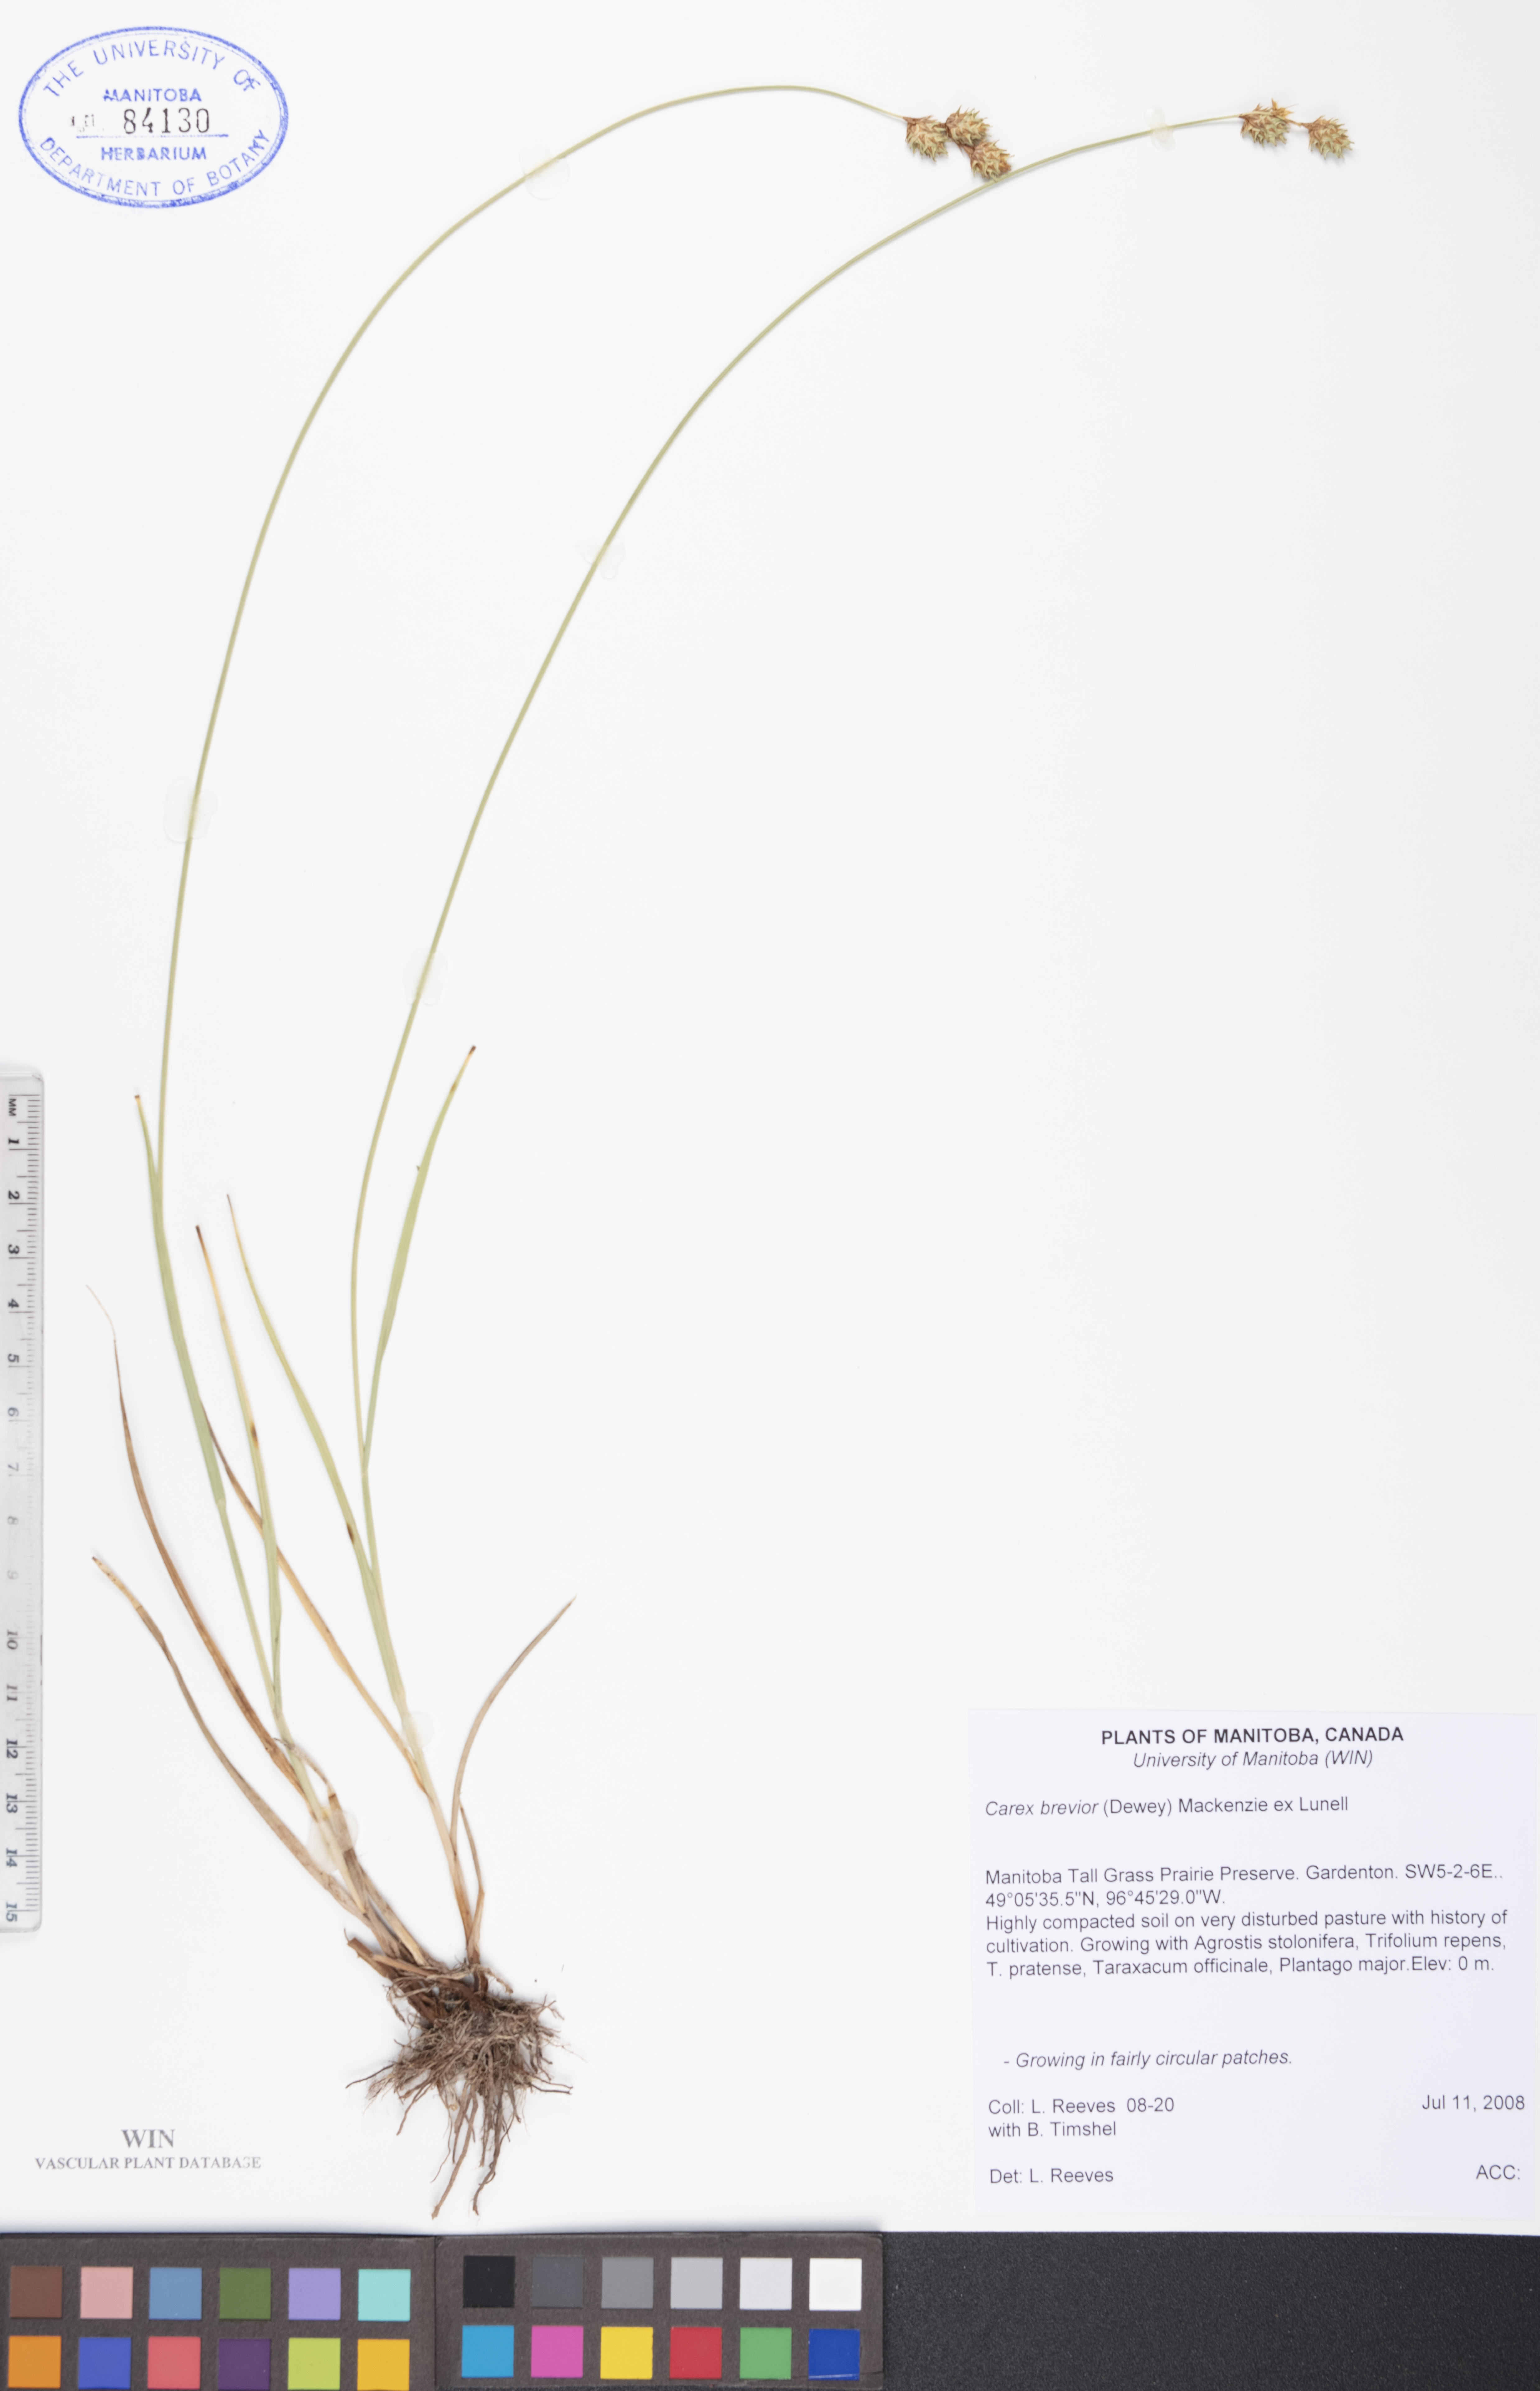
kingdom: Plantae
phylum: Tracheophyta
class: Liliopsida
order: Poales
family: Cyperaceae
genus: Carex
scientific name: Carex brevior
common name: Brevior sedge
